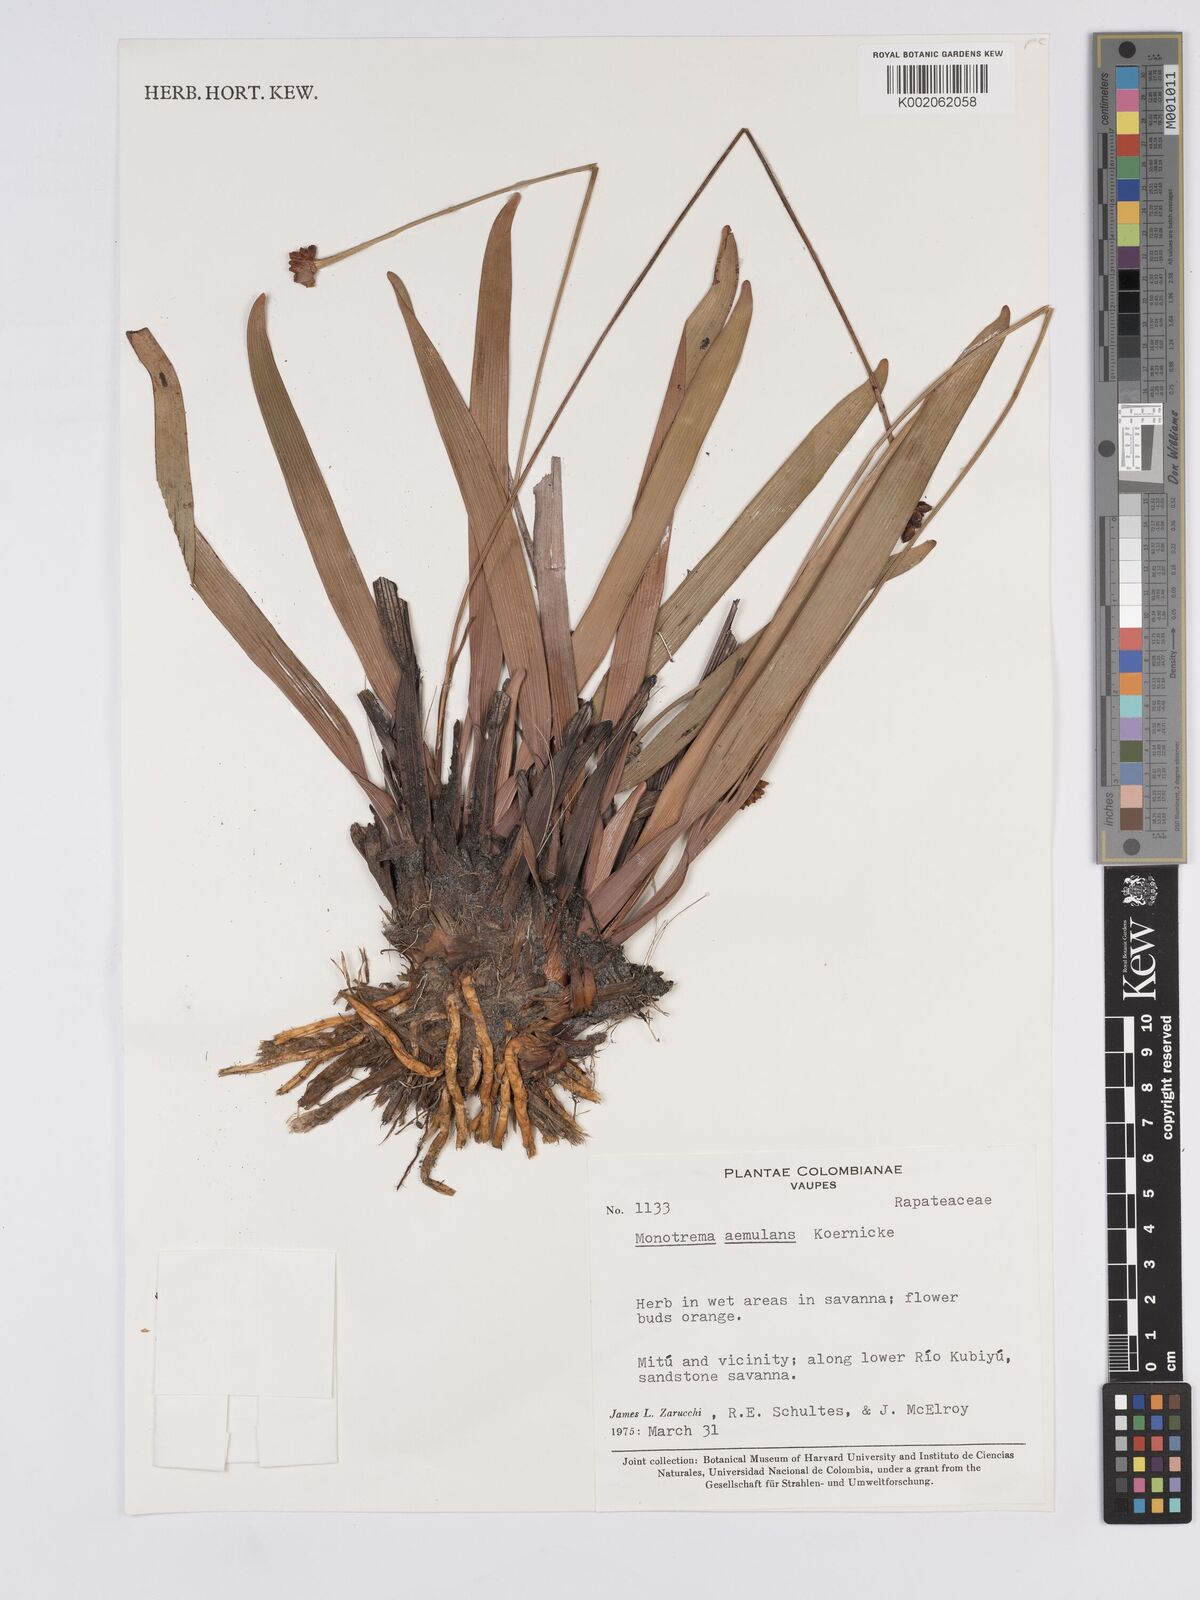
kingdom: Plantae
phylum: Tracheophyta
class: Liliopsida
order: Poales
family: Rapateaceae
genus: Monotrema
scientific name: Monotrema aemulans
